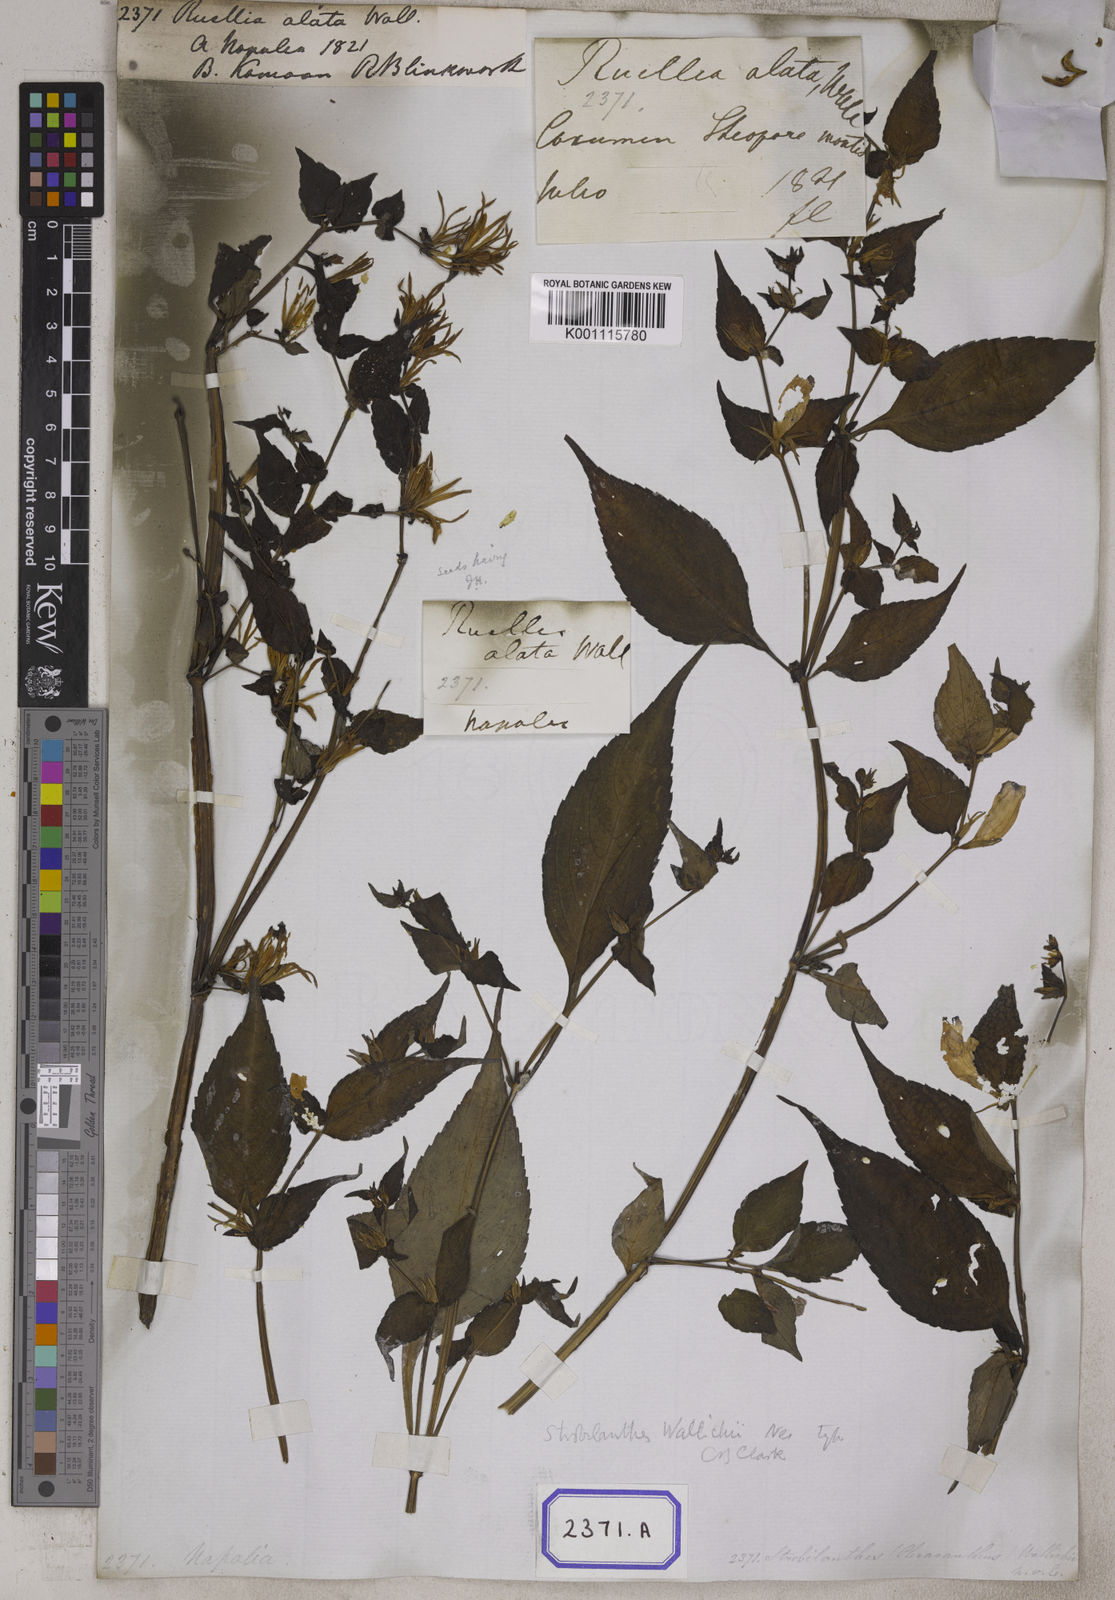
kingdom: Plantae
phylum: Tracheophyta
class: Magnoliopsida
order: Lamiales
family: Acanthaceae
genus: Ruellia
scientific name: Ruellia
